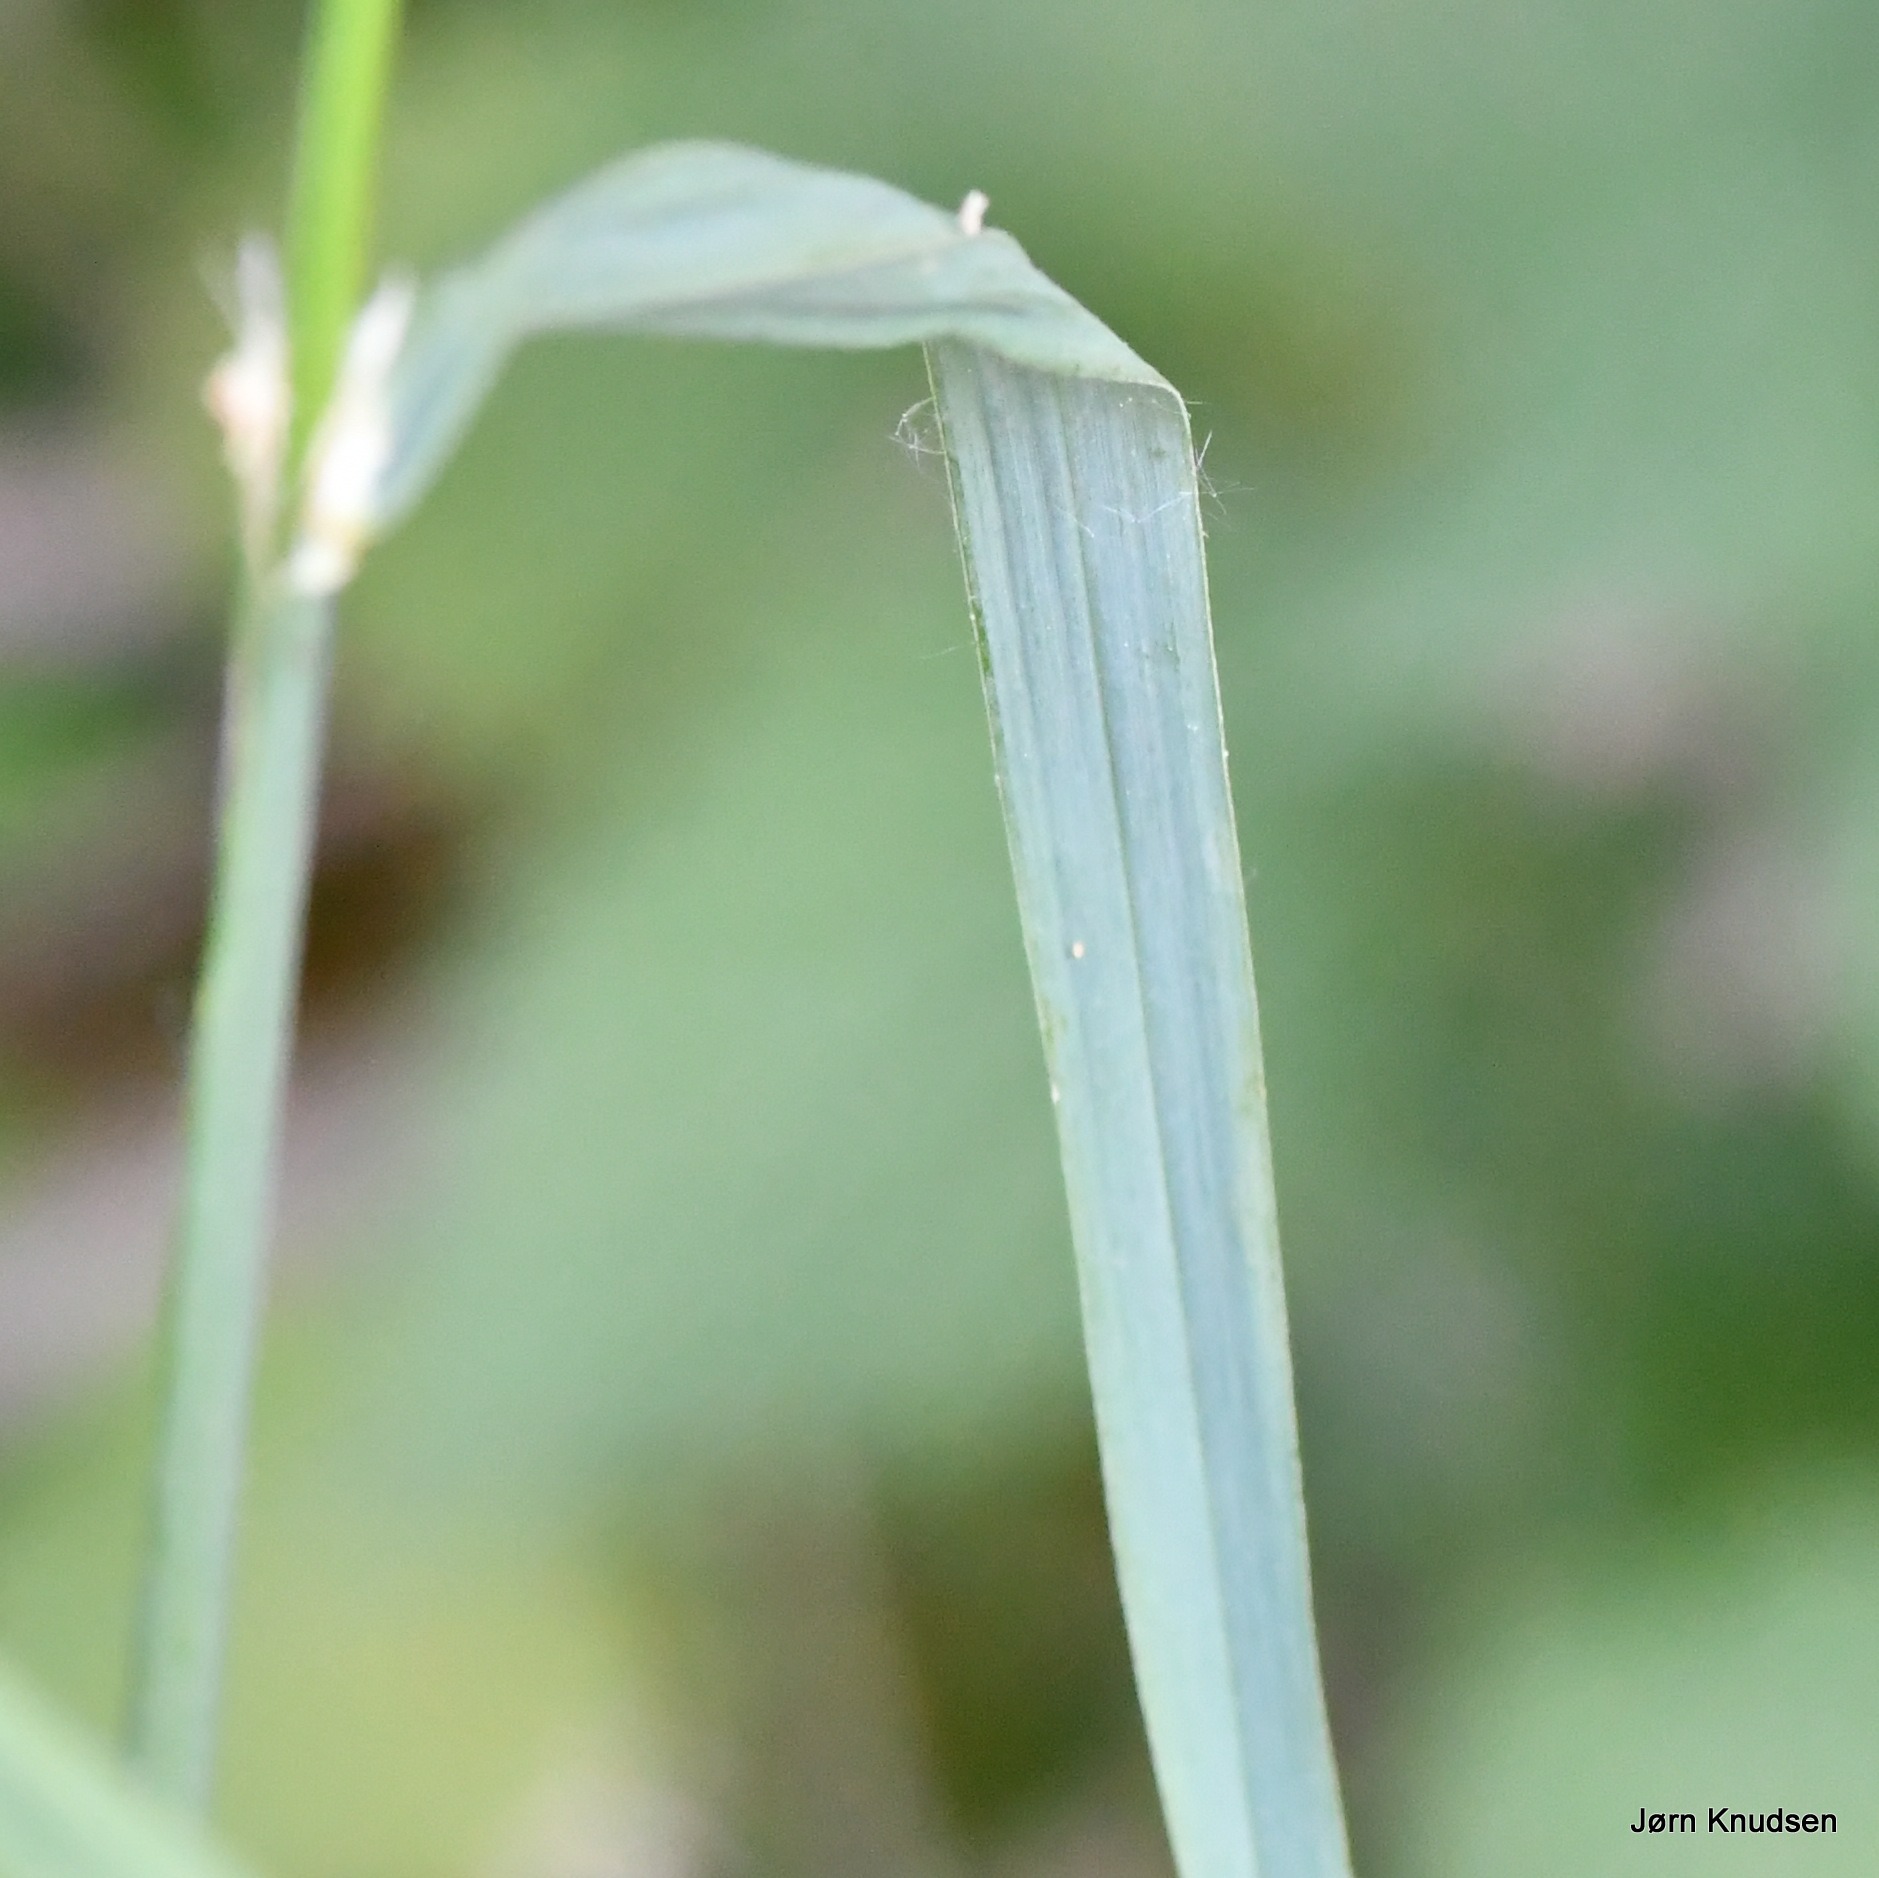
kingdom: Plantae
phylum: Tracheophyta
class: Liliopsida
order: Poales
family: Poaceae
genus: Dactylis
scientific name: Dactylis glomerata
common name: Almindelig hundegræs
